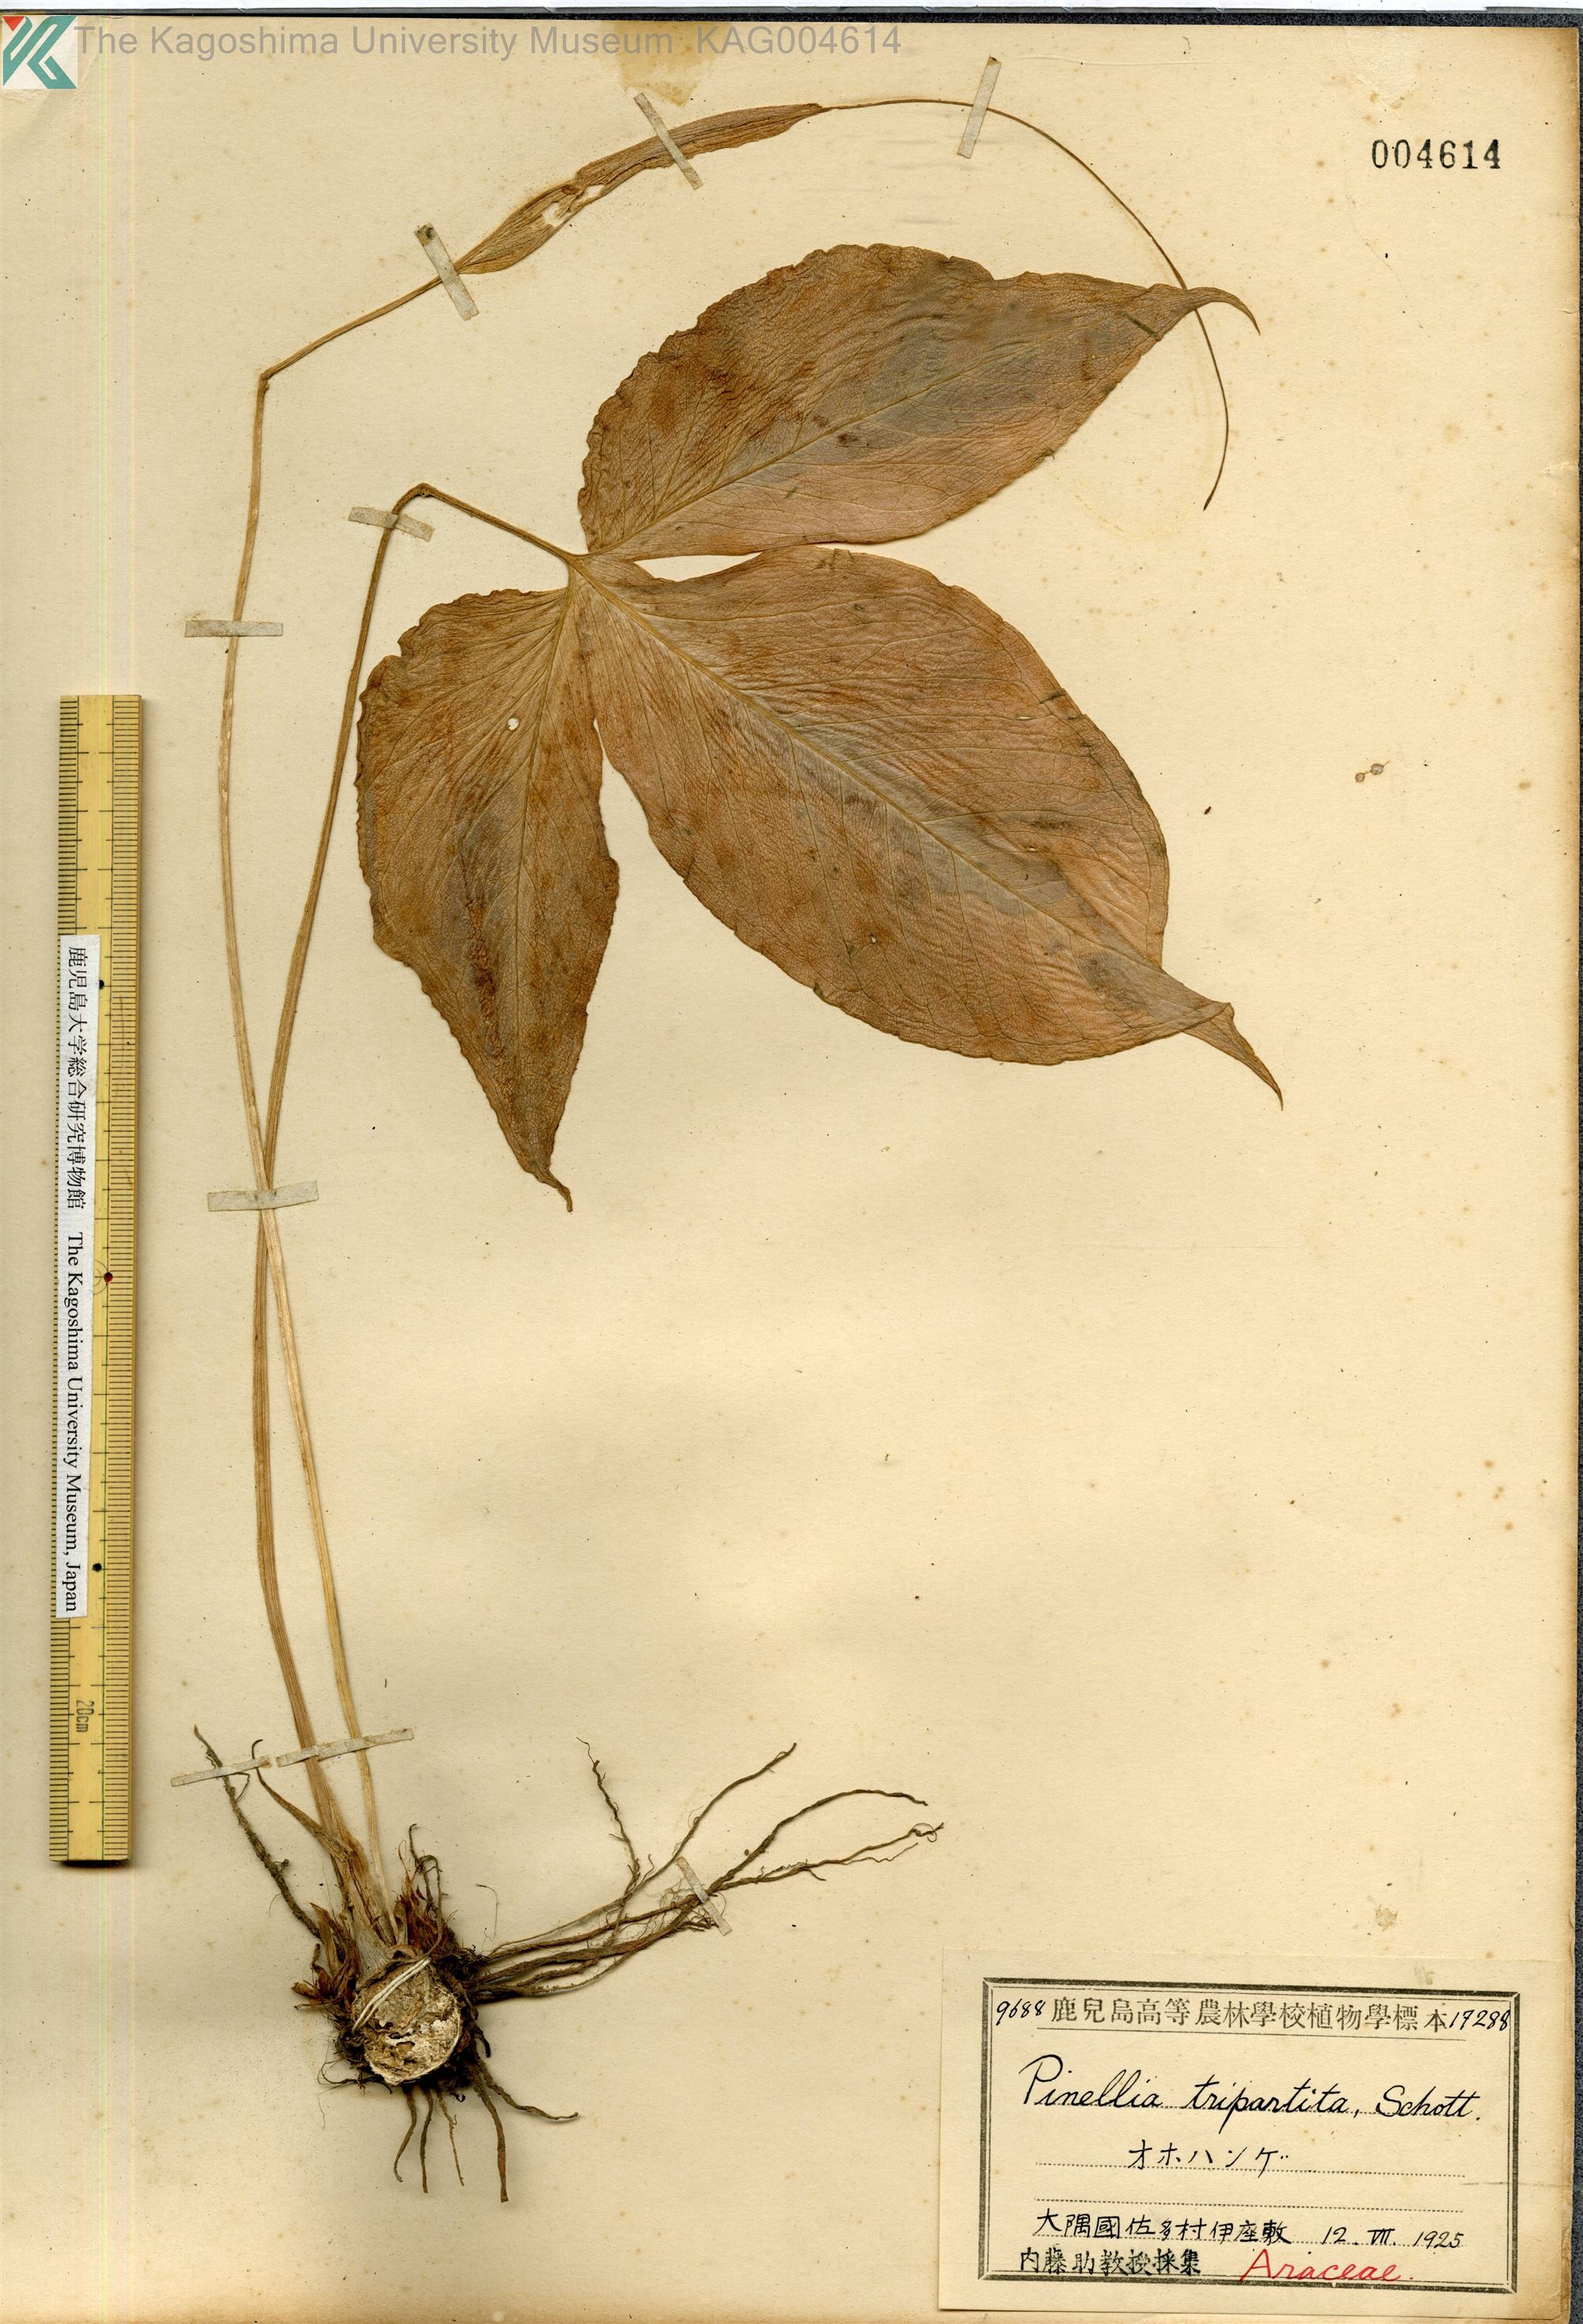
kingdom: Plantae
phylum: Tracheophyta
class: Liliopsida
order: Alismatales
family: Araceae
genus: Pinellia
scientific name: Pinellia tripartita
